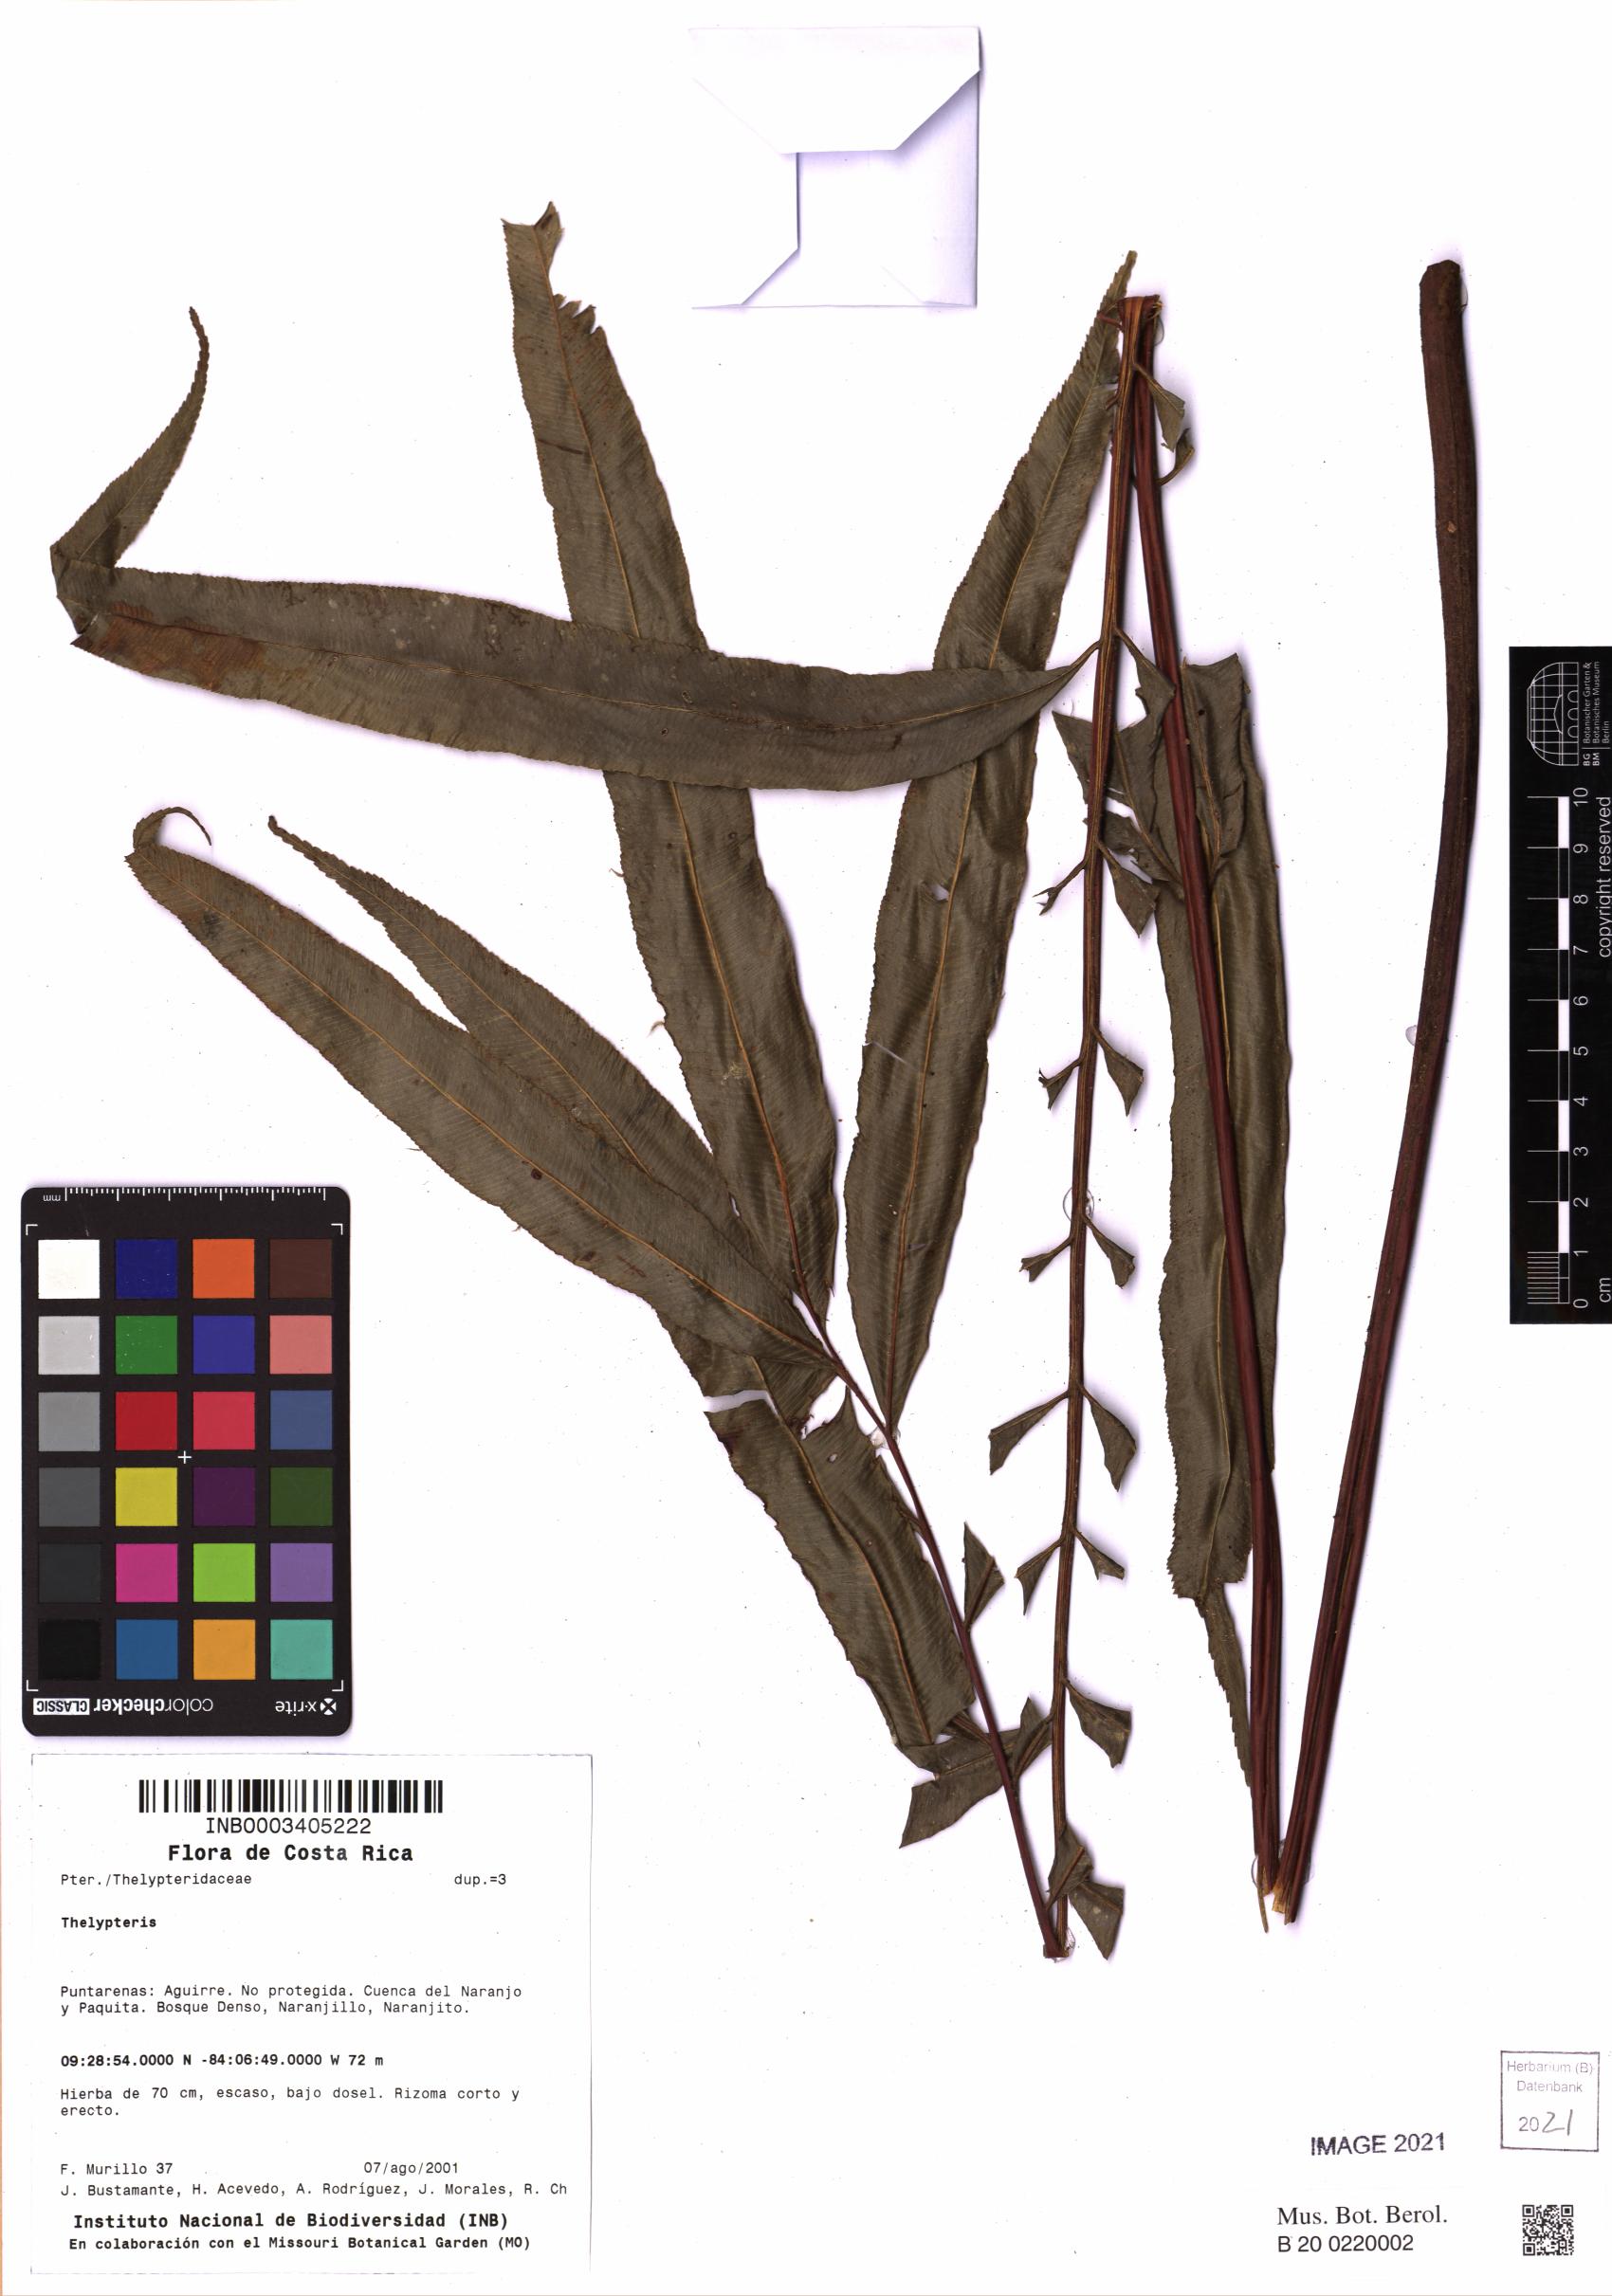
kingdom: Plantae
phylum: Tracheophyta
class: Polypodiopsida
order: Polypodiales
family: Thelypteridaceae
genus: Thelypteris
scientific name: Thelypteris
